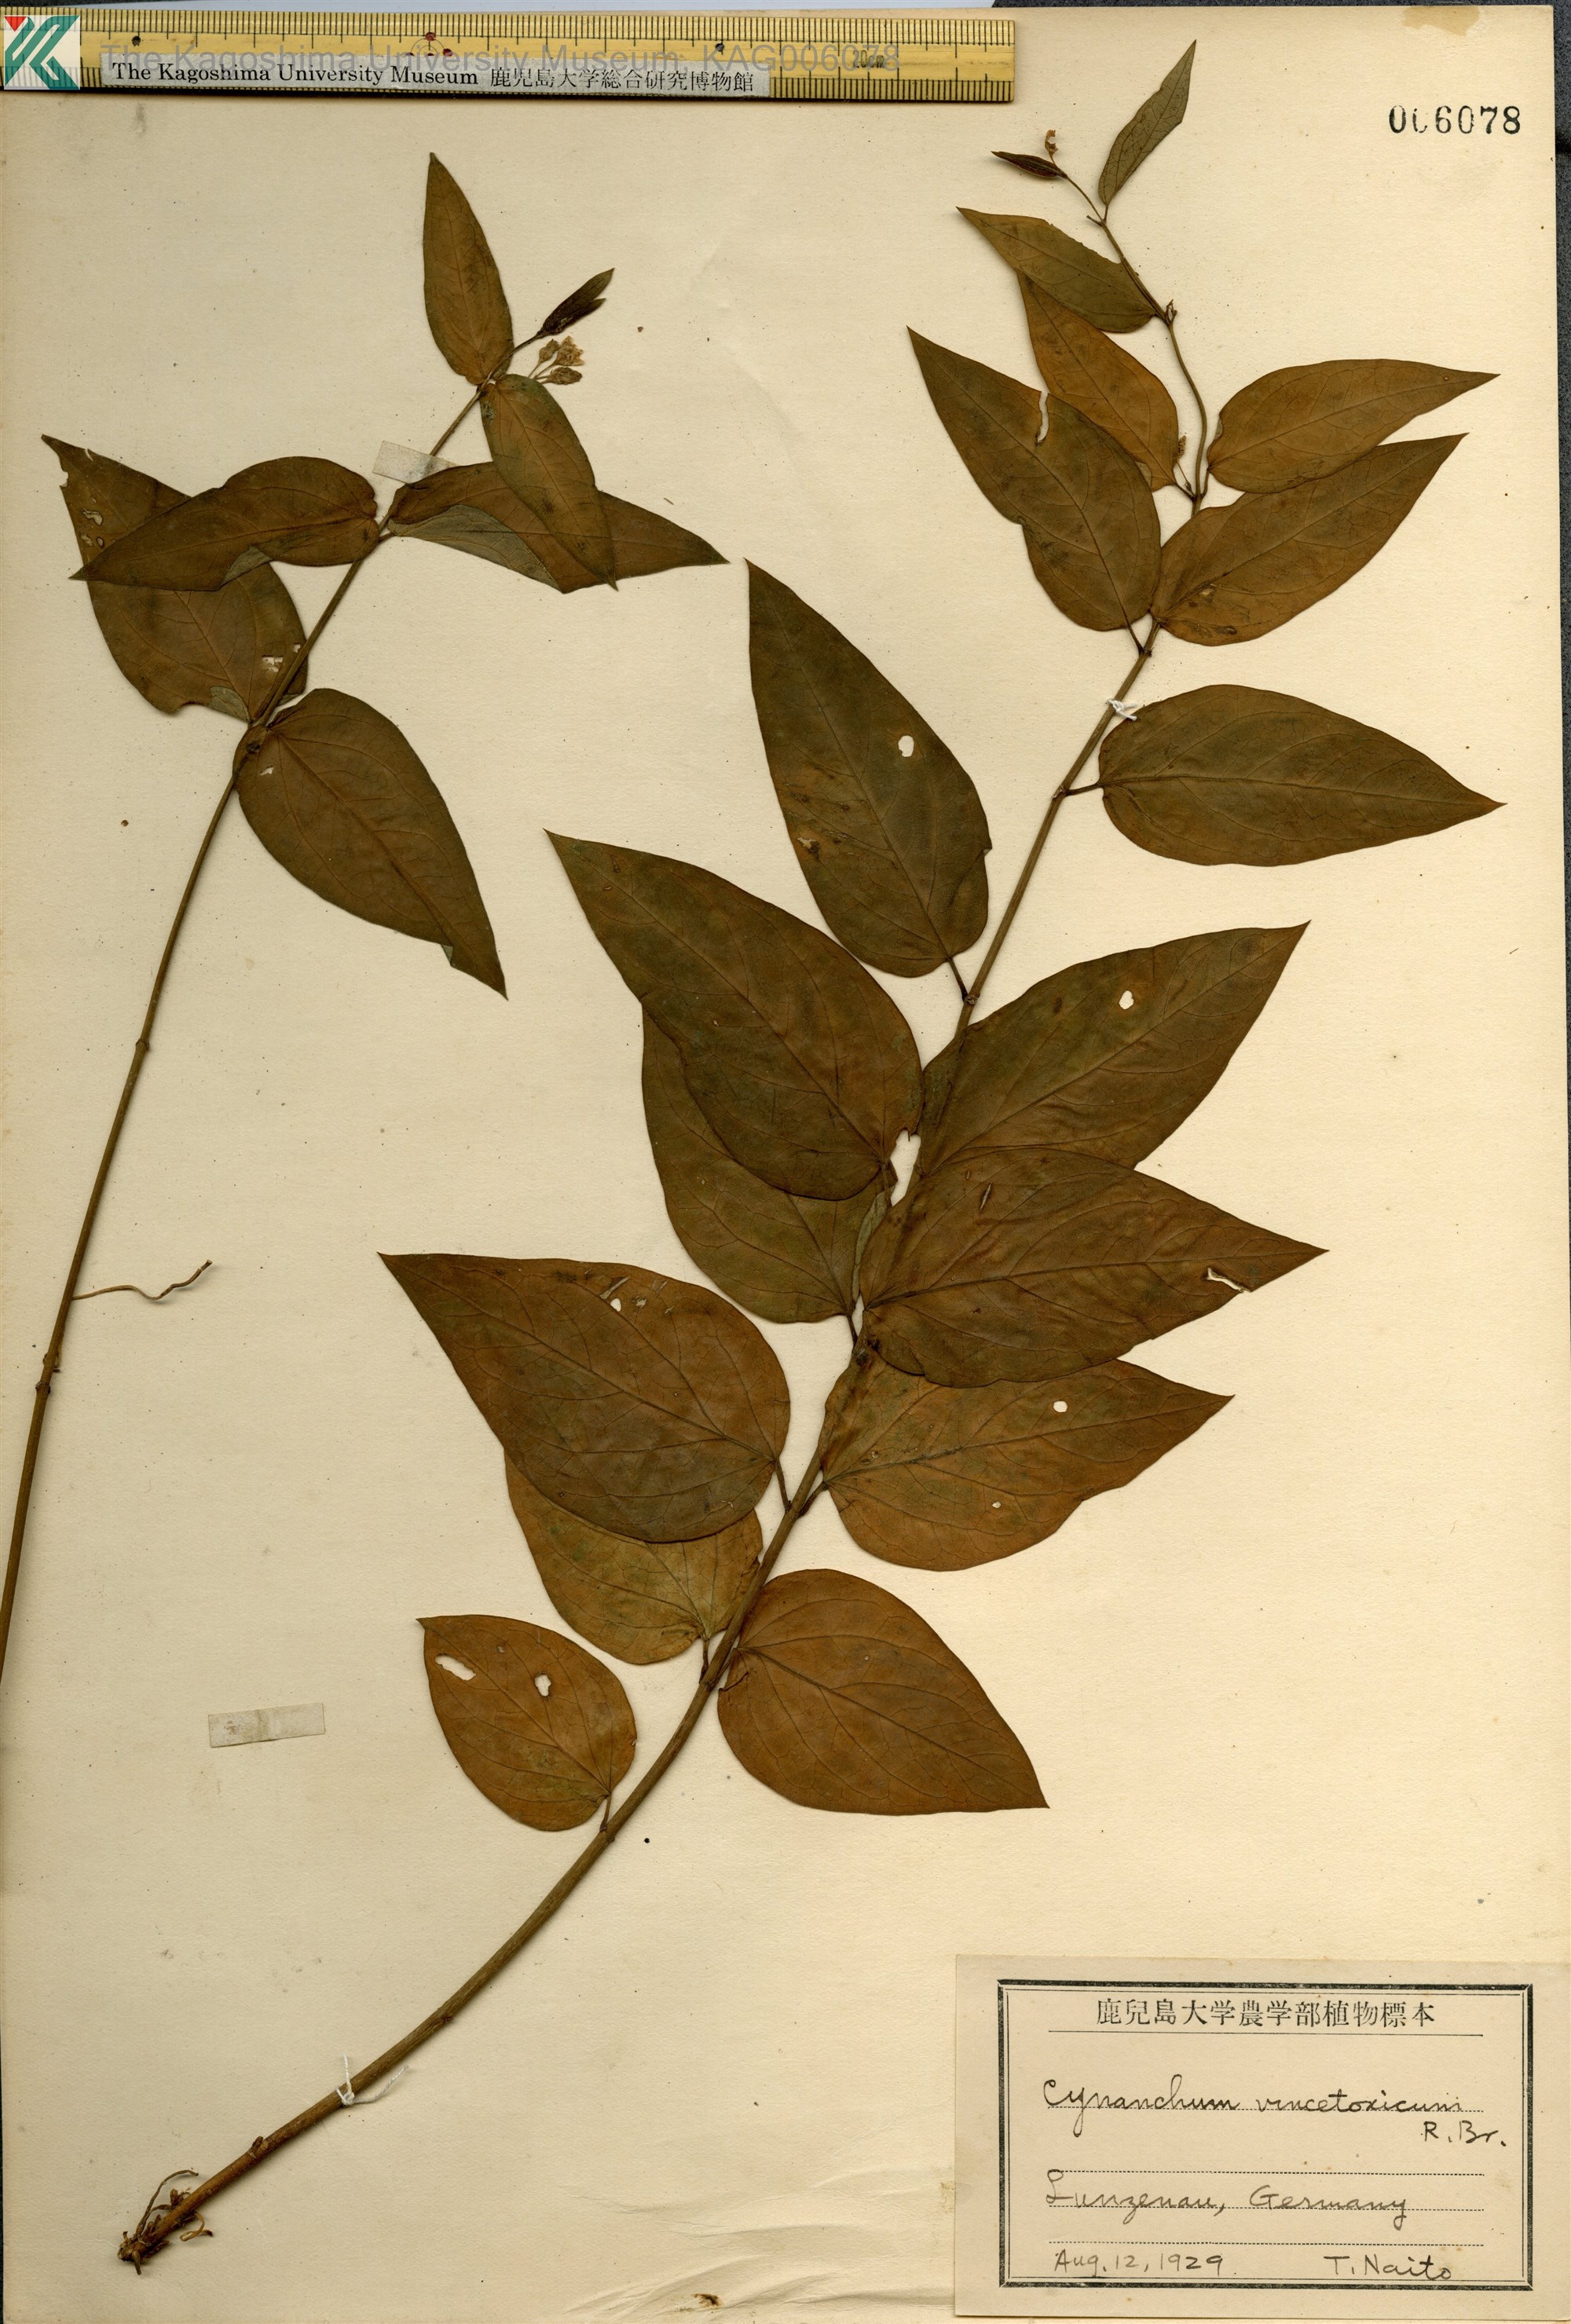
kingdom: Plantae
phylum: Tracheophyta
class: Magnoliopsida
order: Gentianales
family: Apocynaceae
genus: Vincetoxicum
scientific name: Vincetoxicum hirundinaria
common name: White swallowwort
